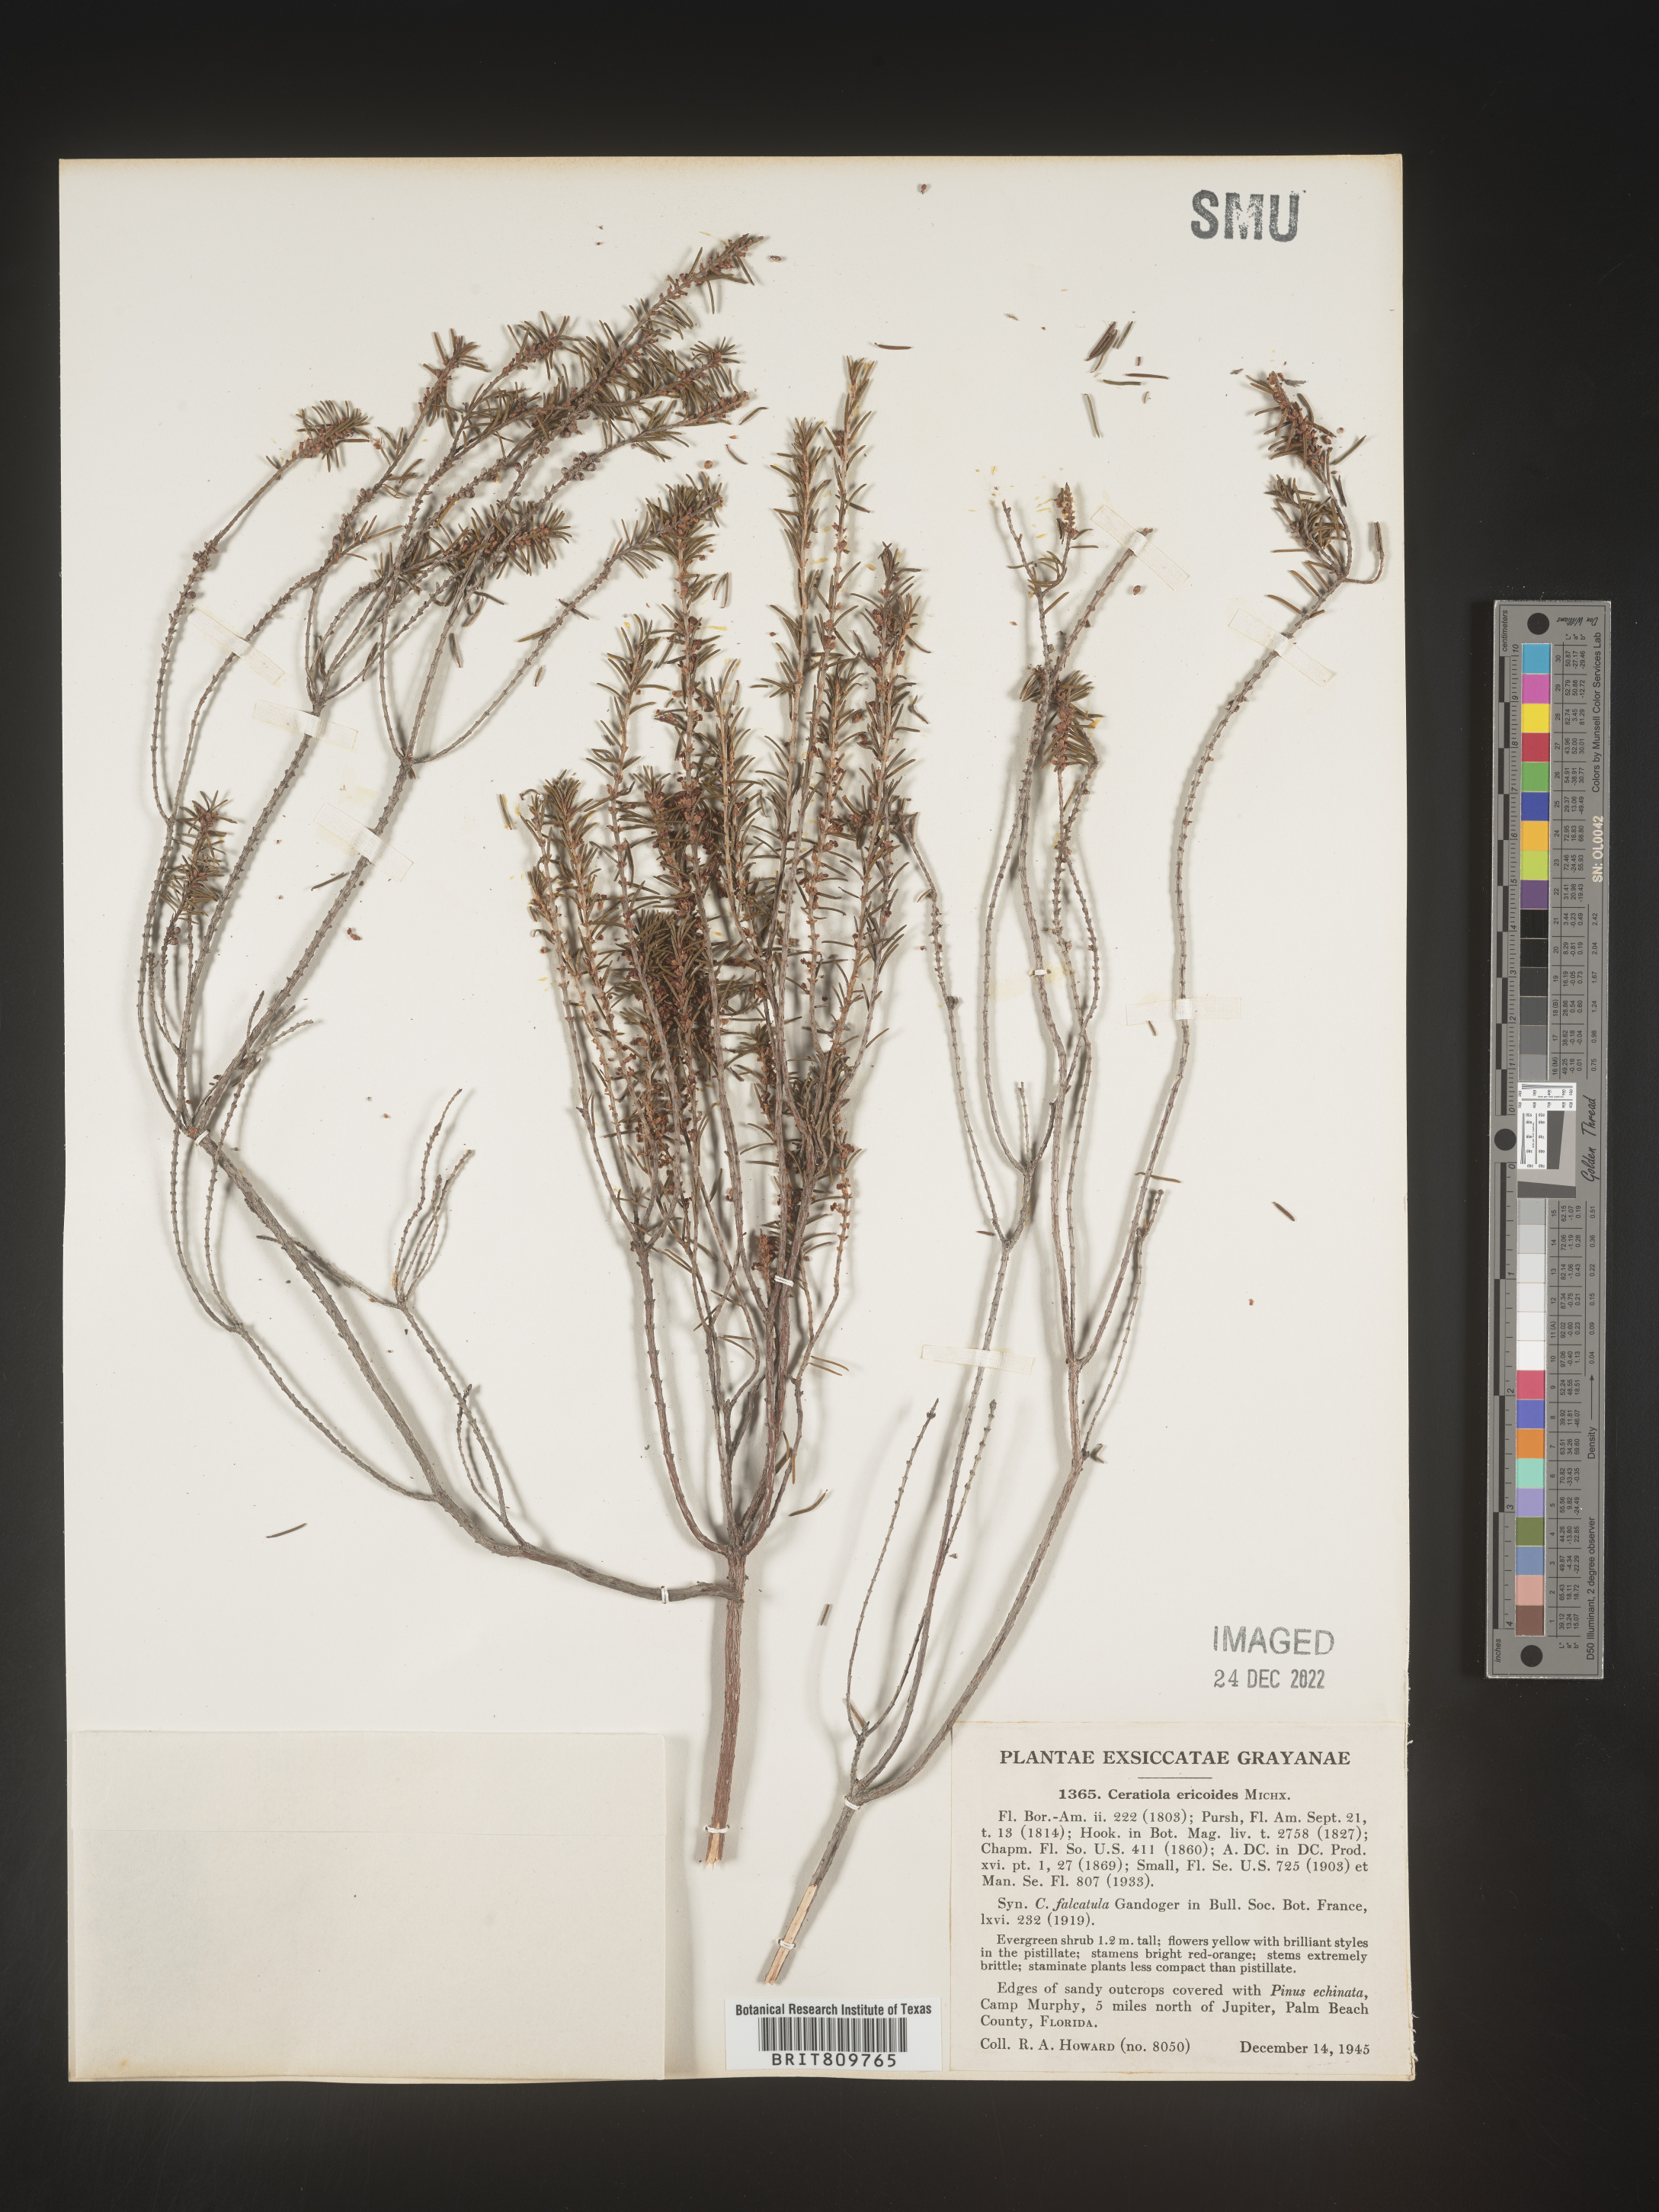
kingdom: Plantae
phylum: Tracheophyta
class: Magnoliopsida
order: Ericales
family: Ericaceae
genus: Ceratiola
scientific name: Ceratiola ericoides
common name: Sandhill-rosemary
